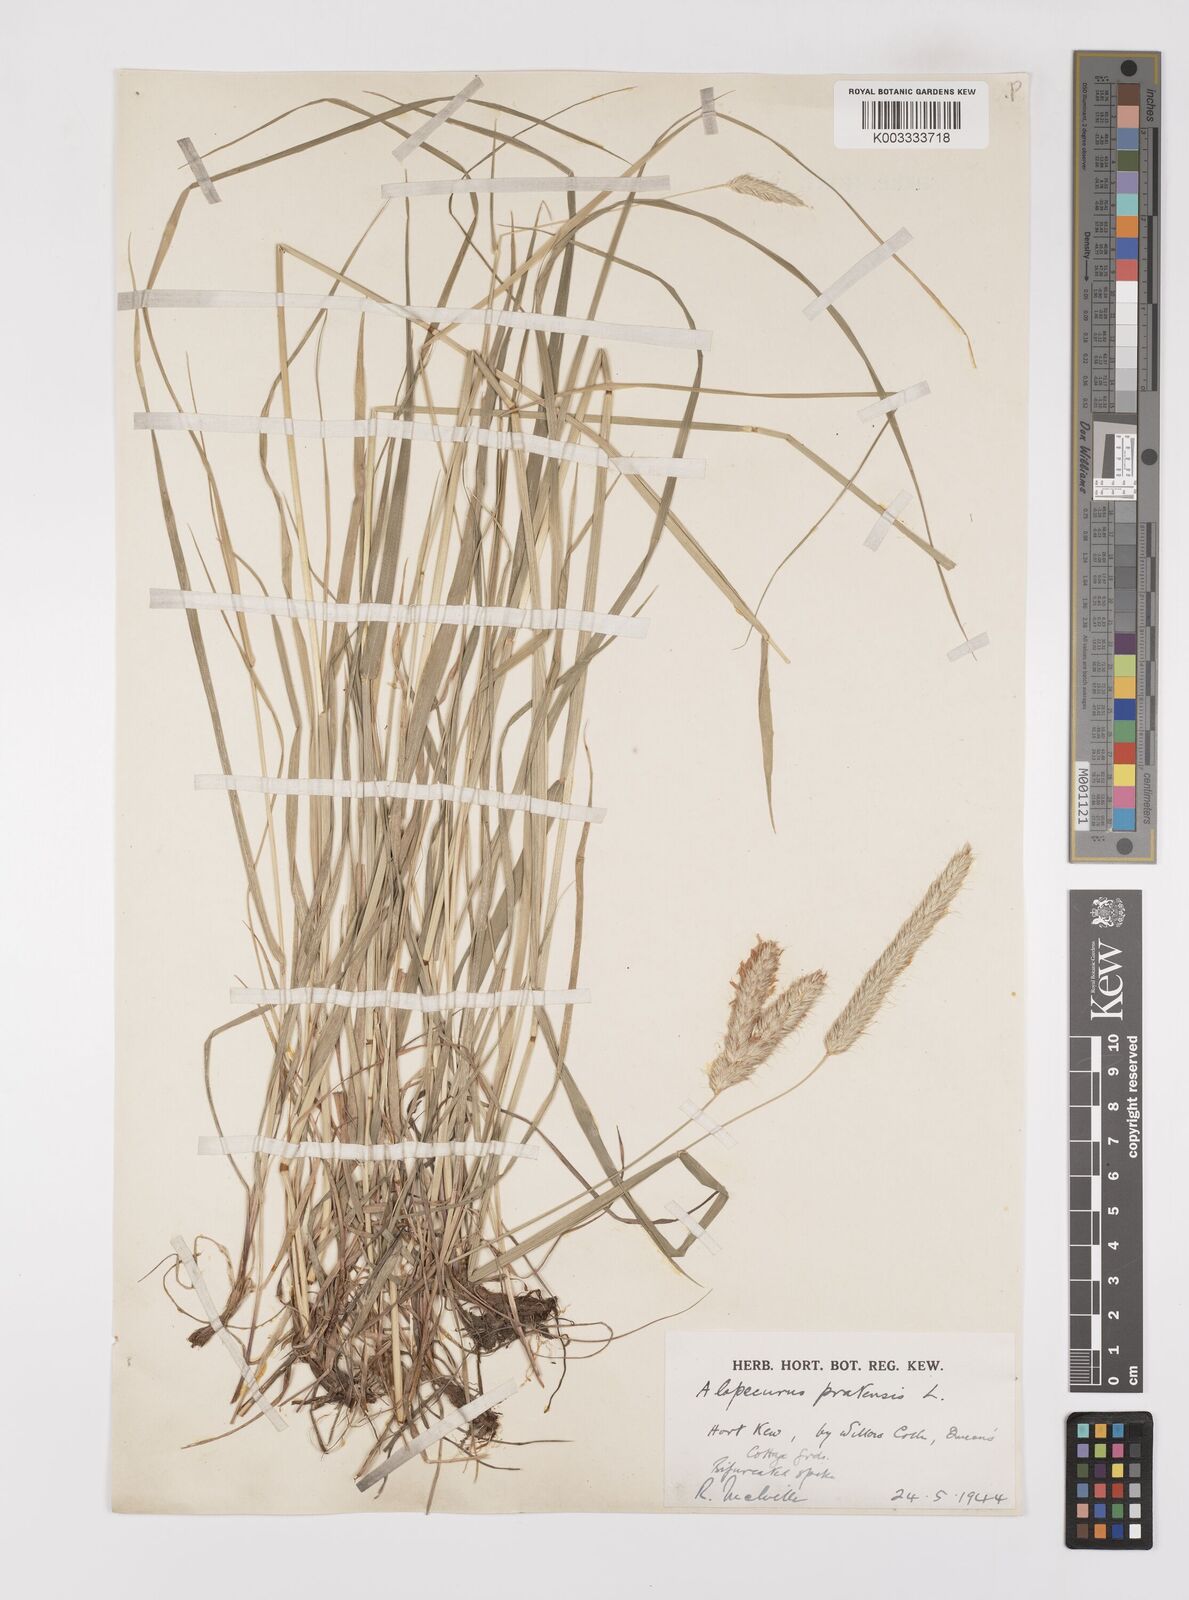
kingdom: Plantae
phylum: Tracheophyta
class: Liliopsida
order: Poales
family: Poaceae
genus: Alopecurus
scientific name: Alopecurus pratensis
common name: Meadow foxtail
